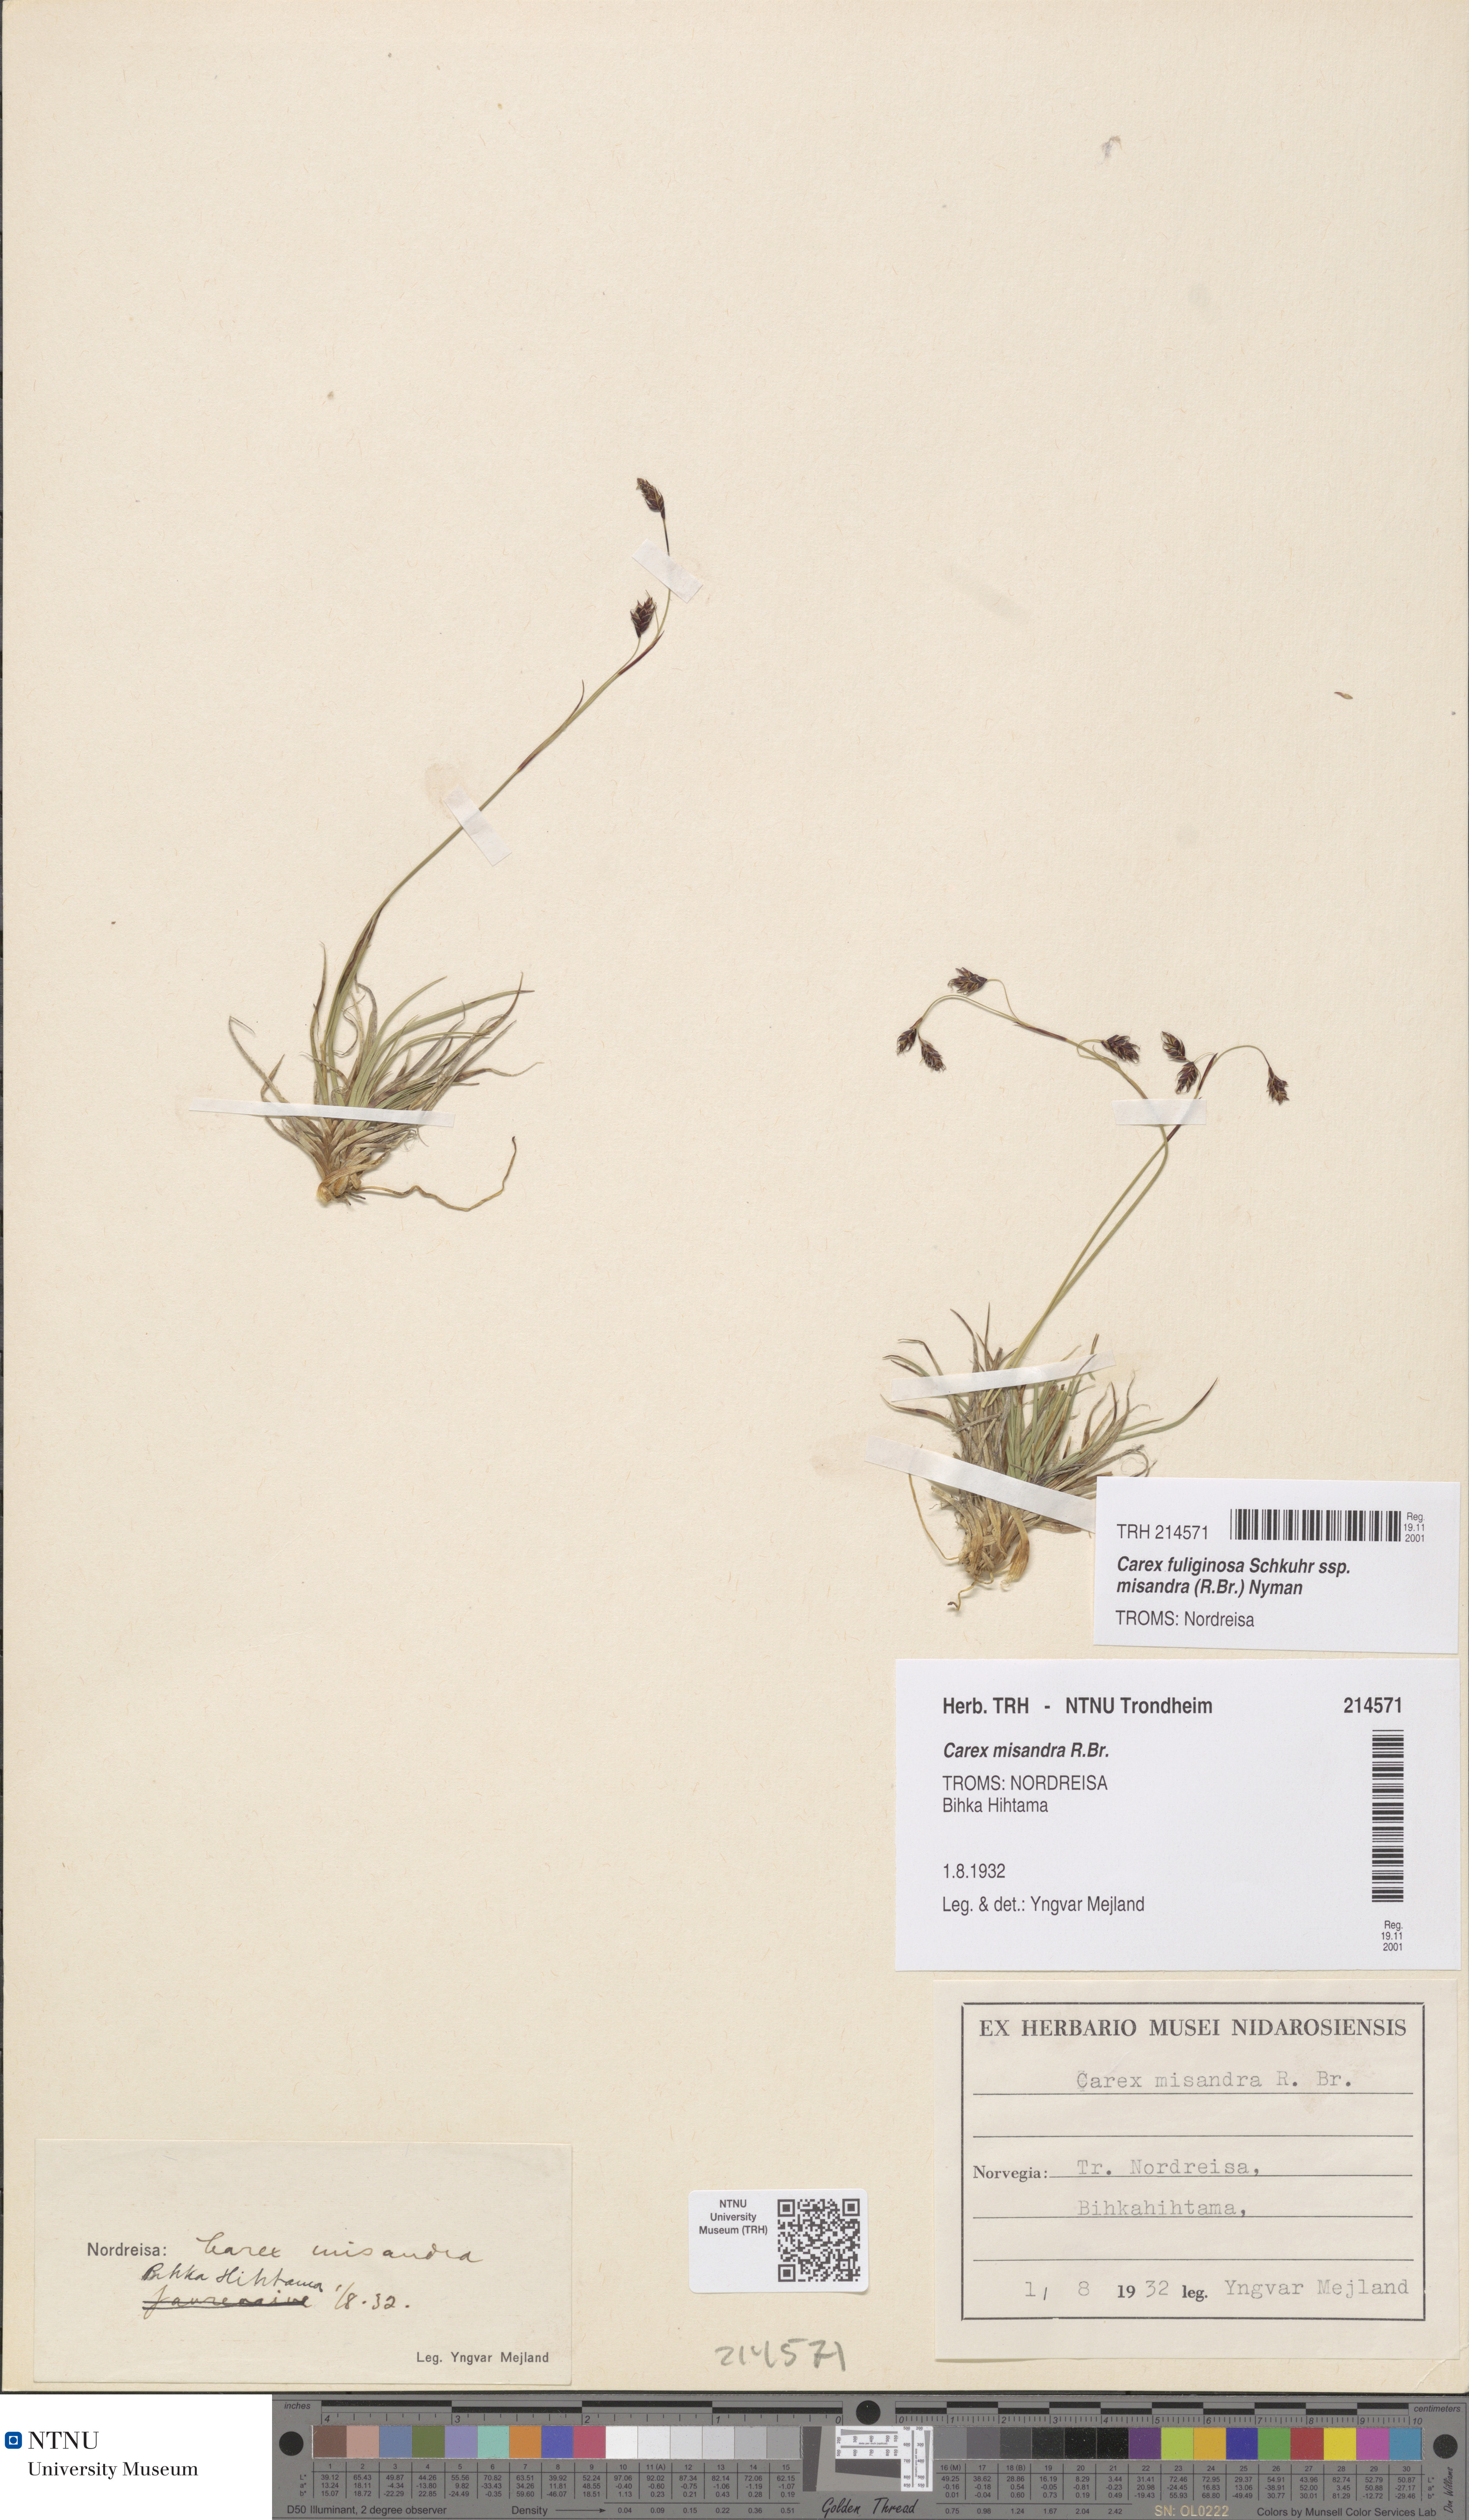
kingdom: Plantae
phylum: Tracheophyta
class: Liliopsida
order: Poales
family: Cyperaceae
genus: Carex
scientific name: Carex fuliginosa
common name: Few-flowered sedge
